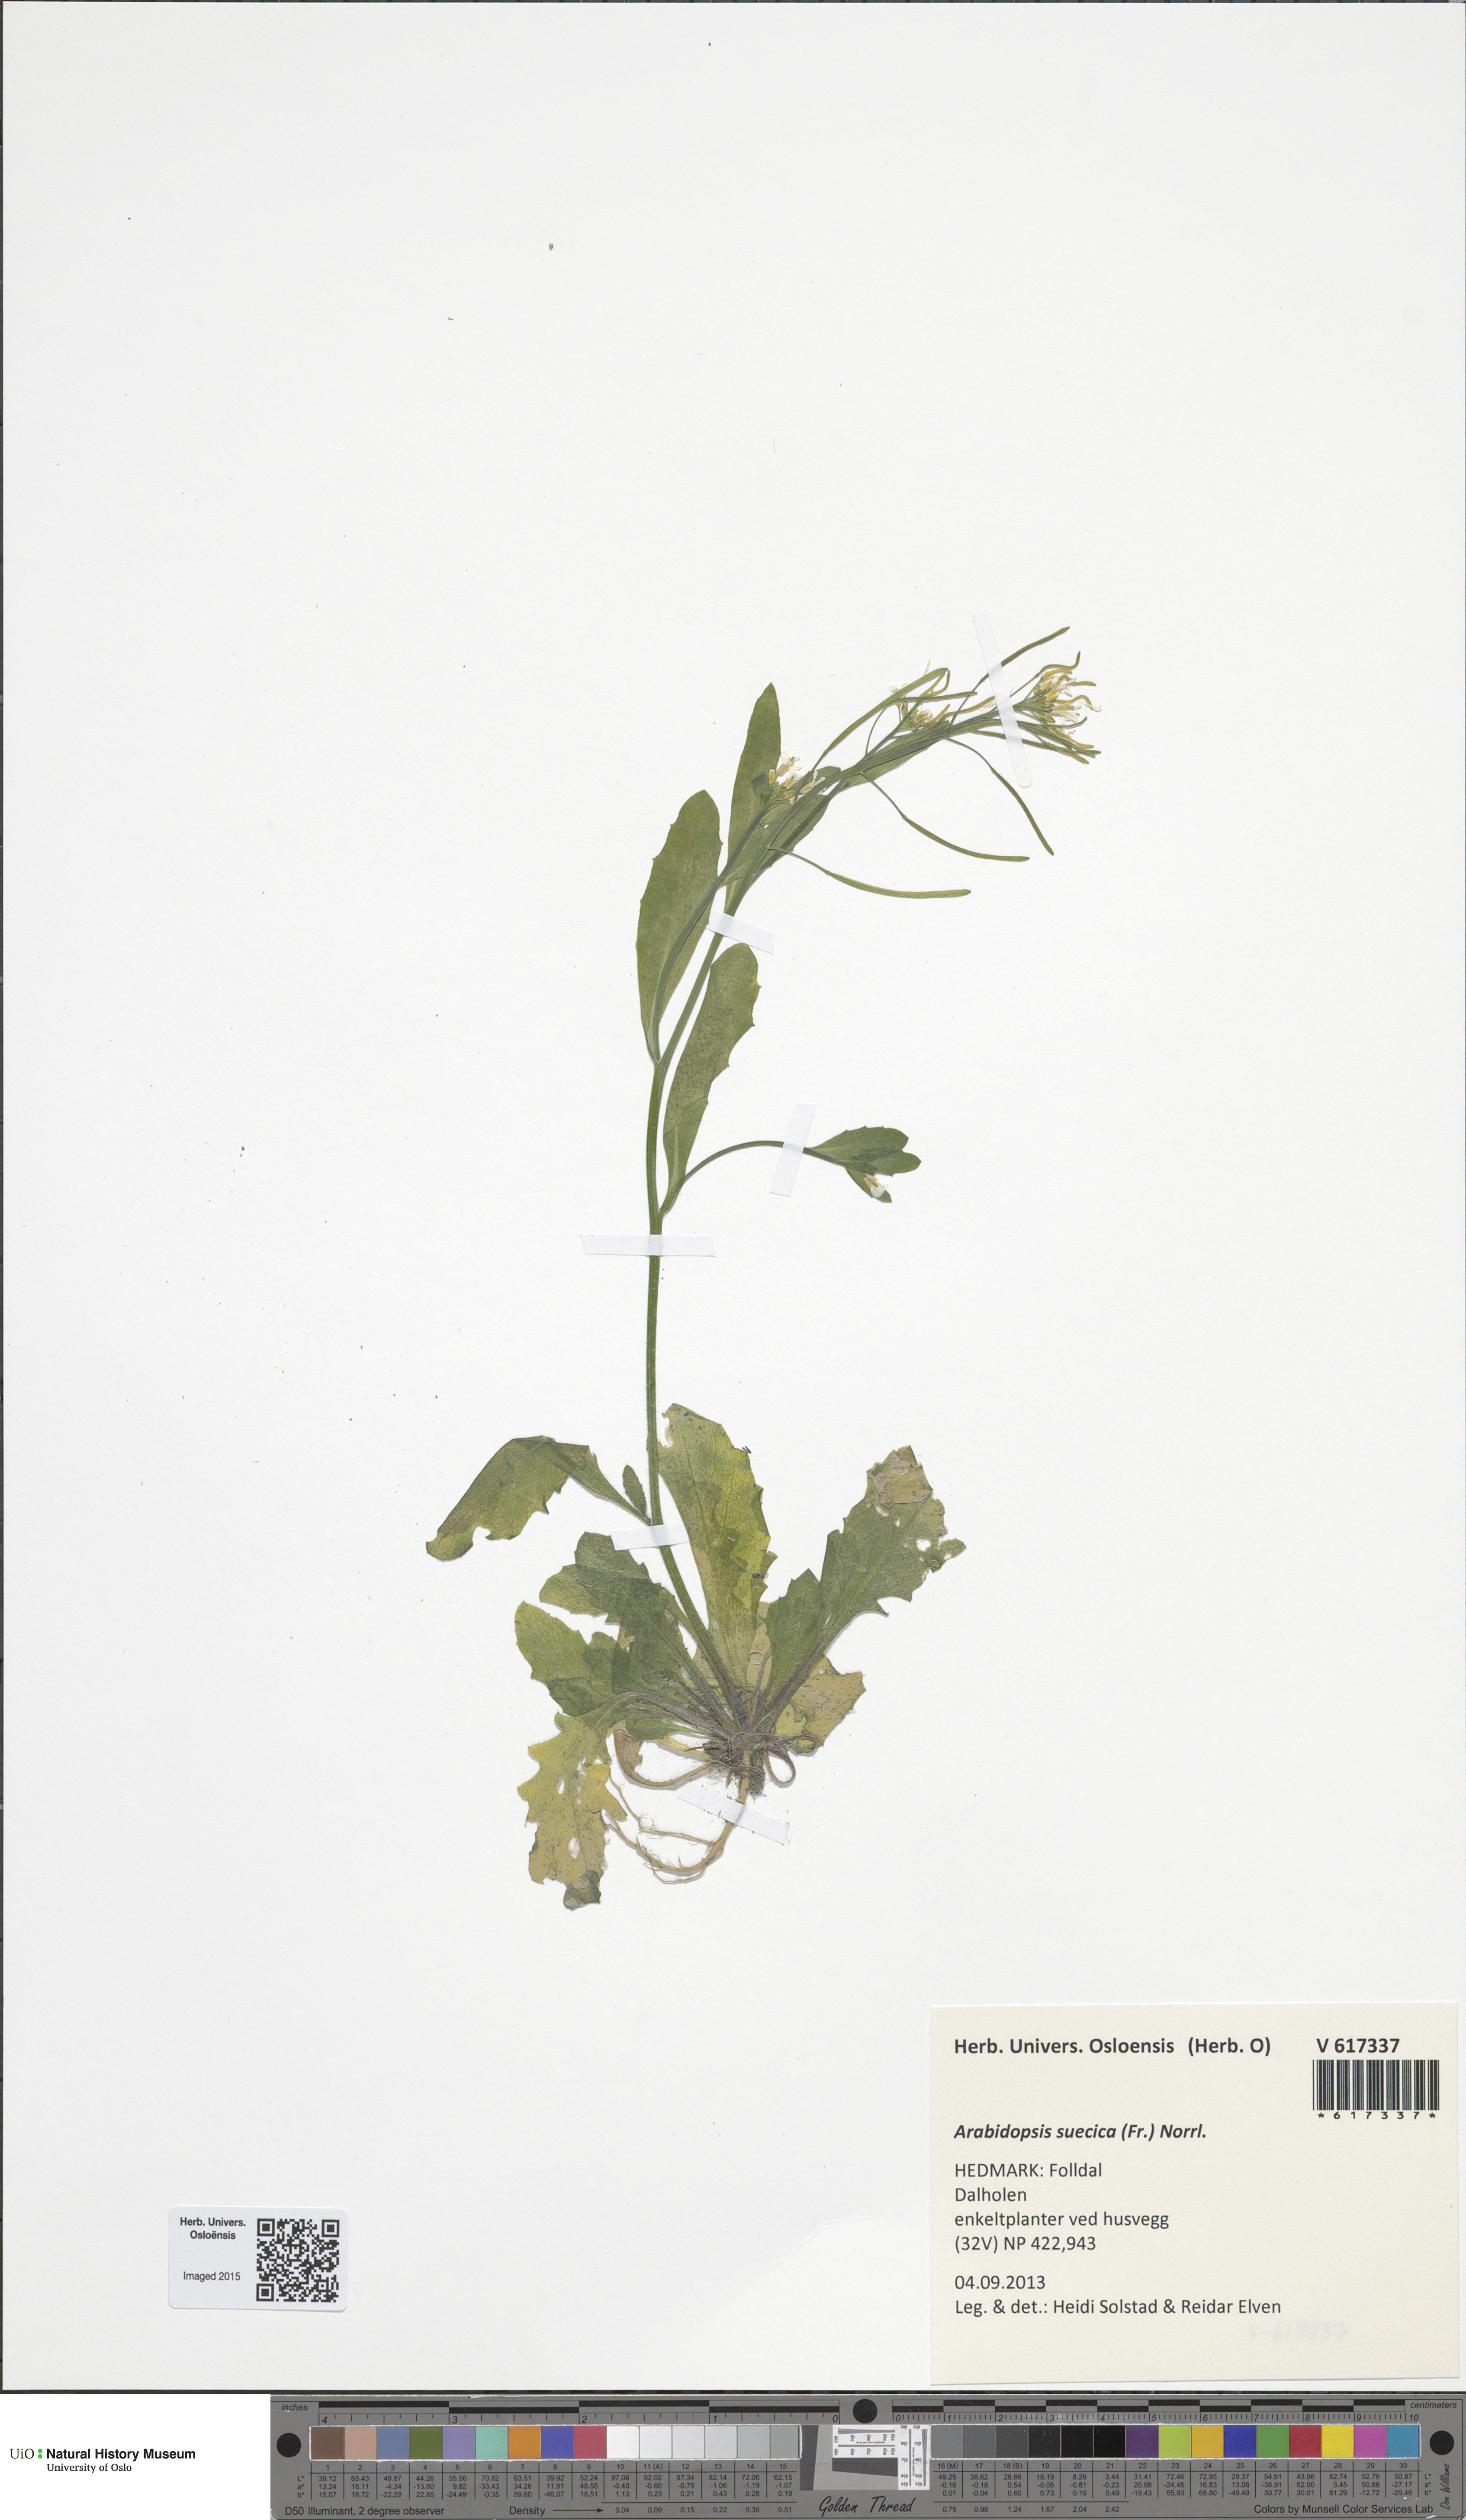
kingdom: Plantae
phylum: Tracheophyta
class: Magnoliopsida
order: Brassicales
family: Brassicaceae
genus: Arabidopsis
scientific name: Arabidopsis suecica
